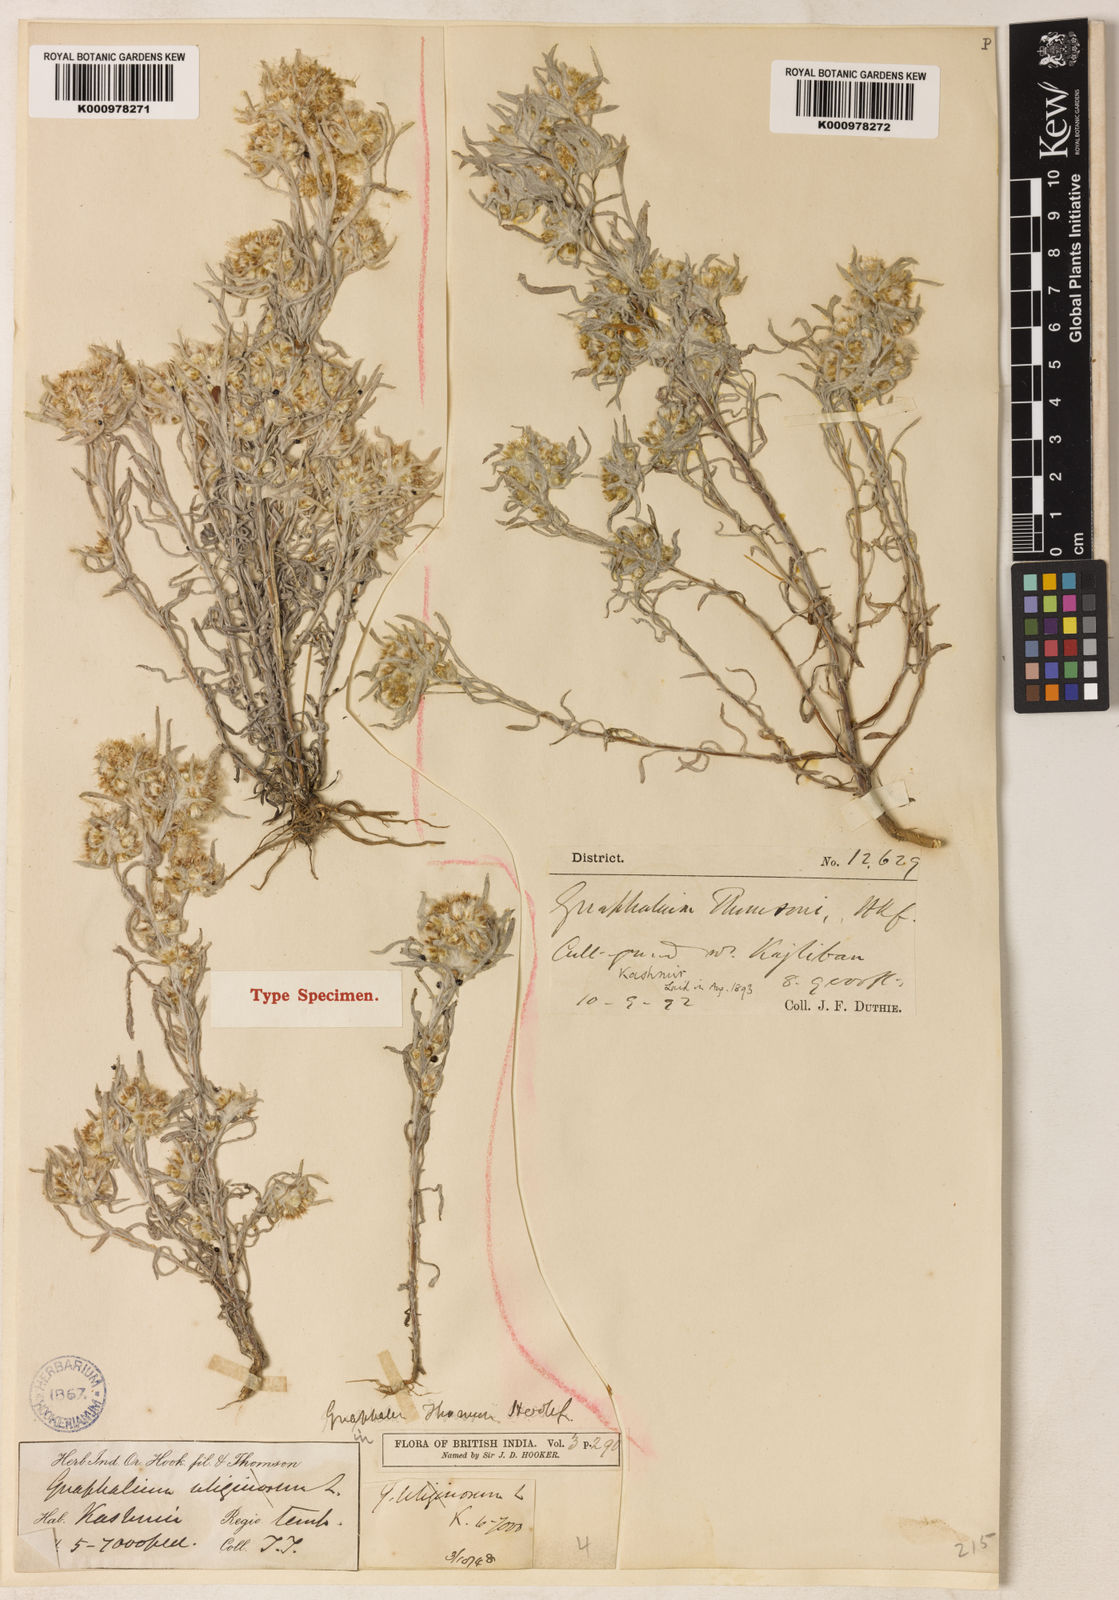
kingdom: Plantae
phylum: Tracheophyta
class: Magnoliopsida
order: Asterales
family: Asteraceae
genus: Gnaphalium
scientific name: Gnaphalium uliginosum
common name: Marsh cudweed
